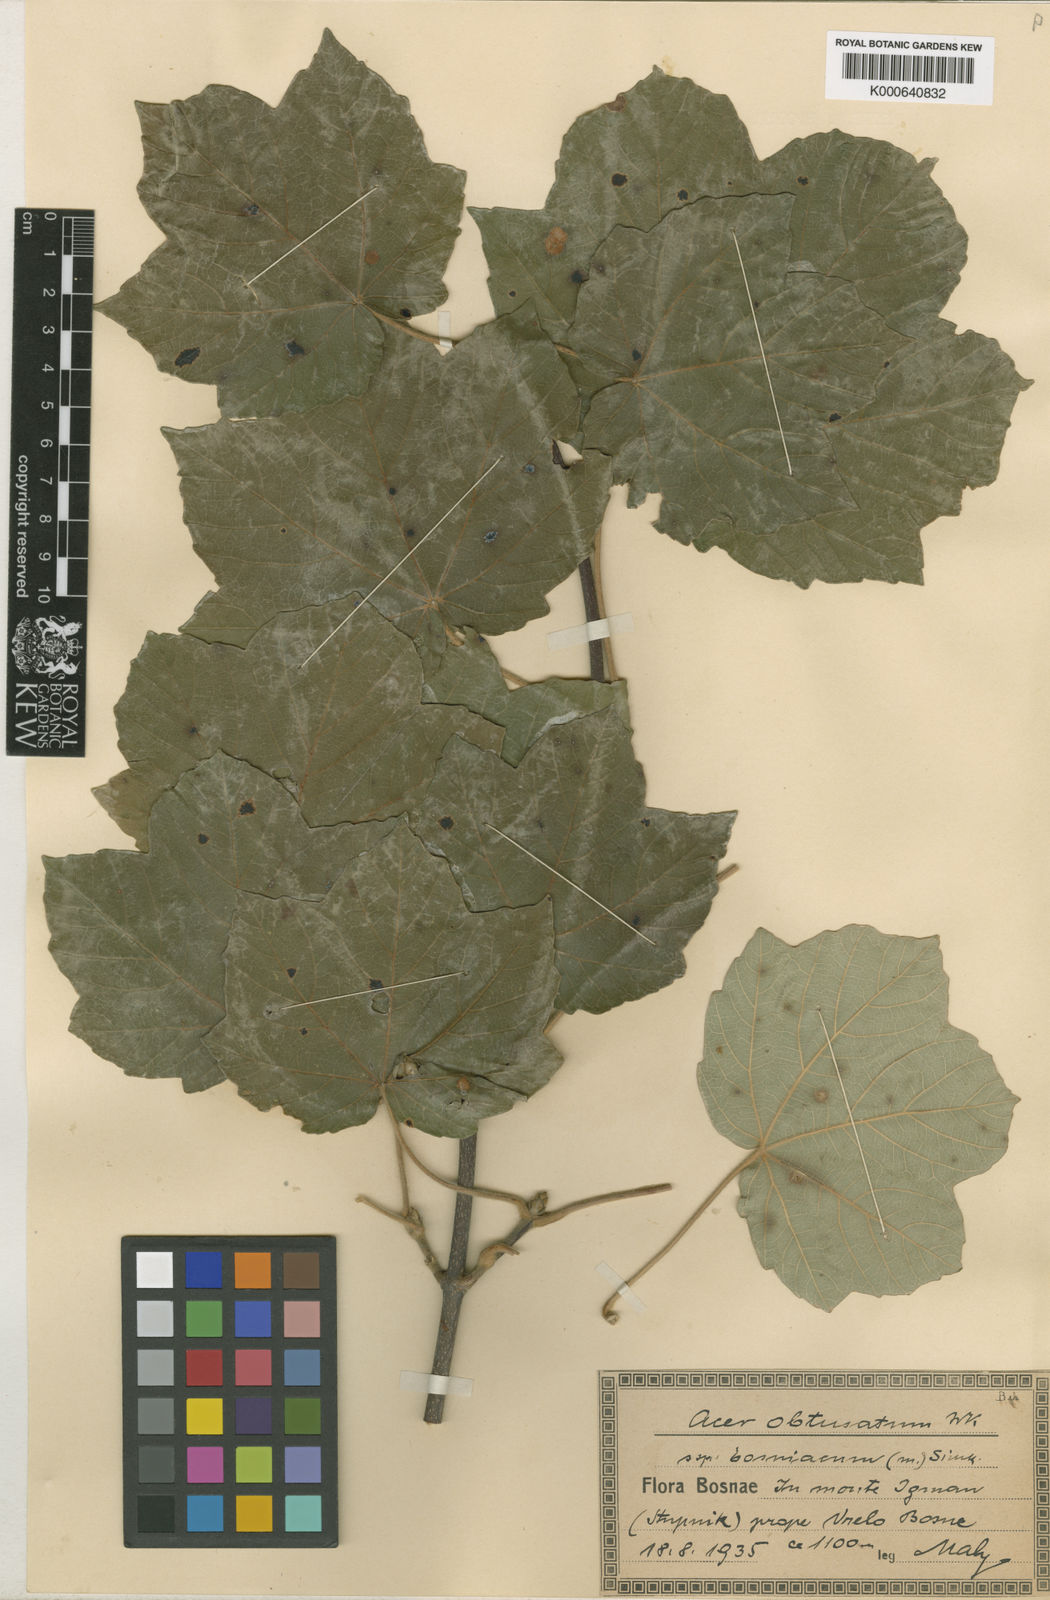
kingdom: Plantae
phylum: Tracheophyta
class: Magnoliopsida
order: Sapindales
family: Sapindaceae
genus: Acer
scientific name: Acer opalus
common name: Italian maple
